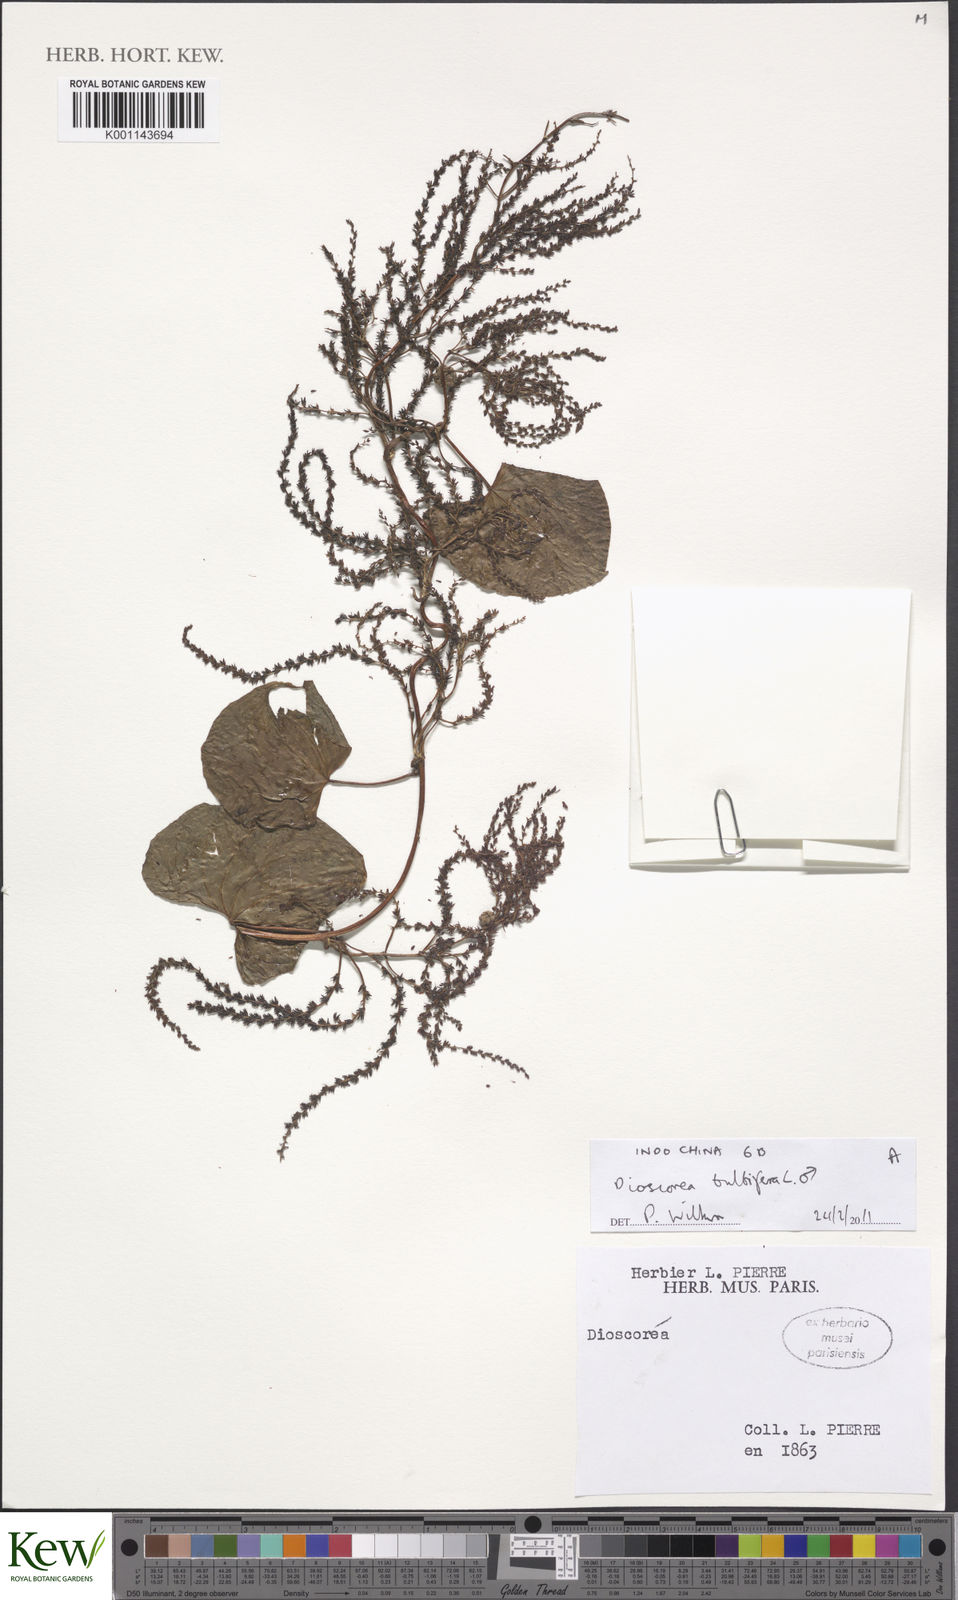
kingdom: Plantae
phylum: Tracheophyta
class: Liliopsida
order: Dioscoreales
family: Dioscoreaceae
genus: Dioscorea
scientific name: Dioscorea bulbifera
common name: Air yam
